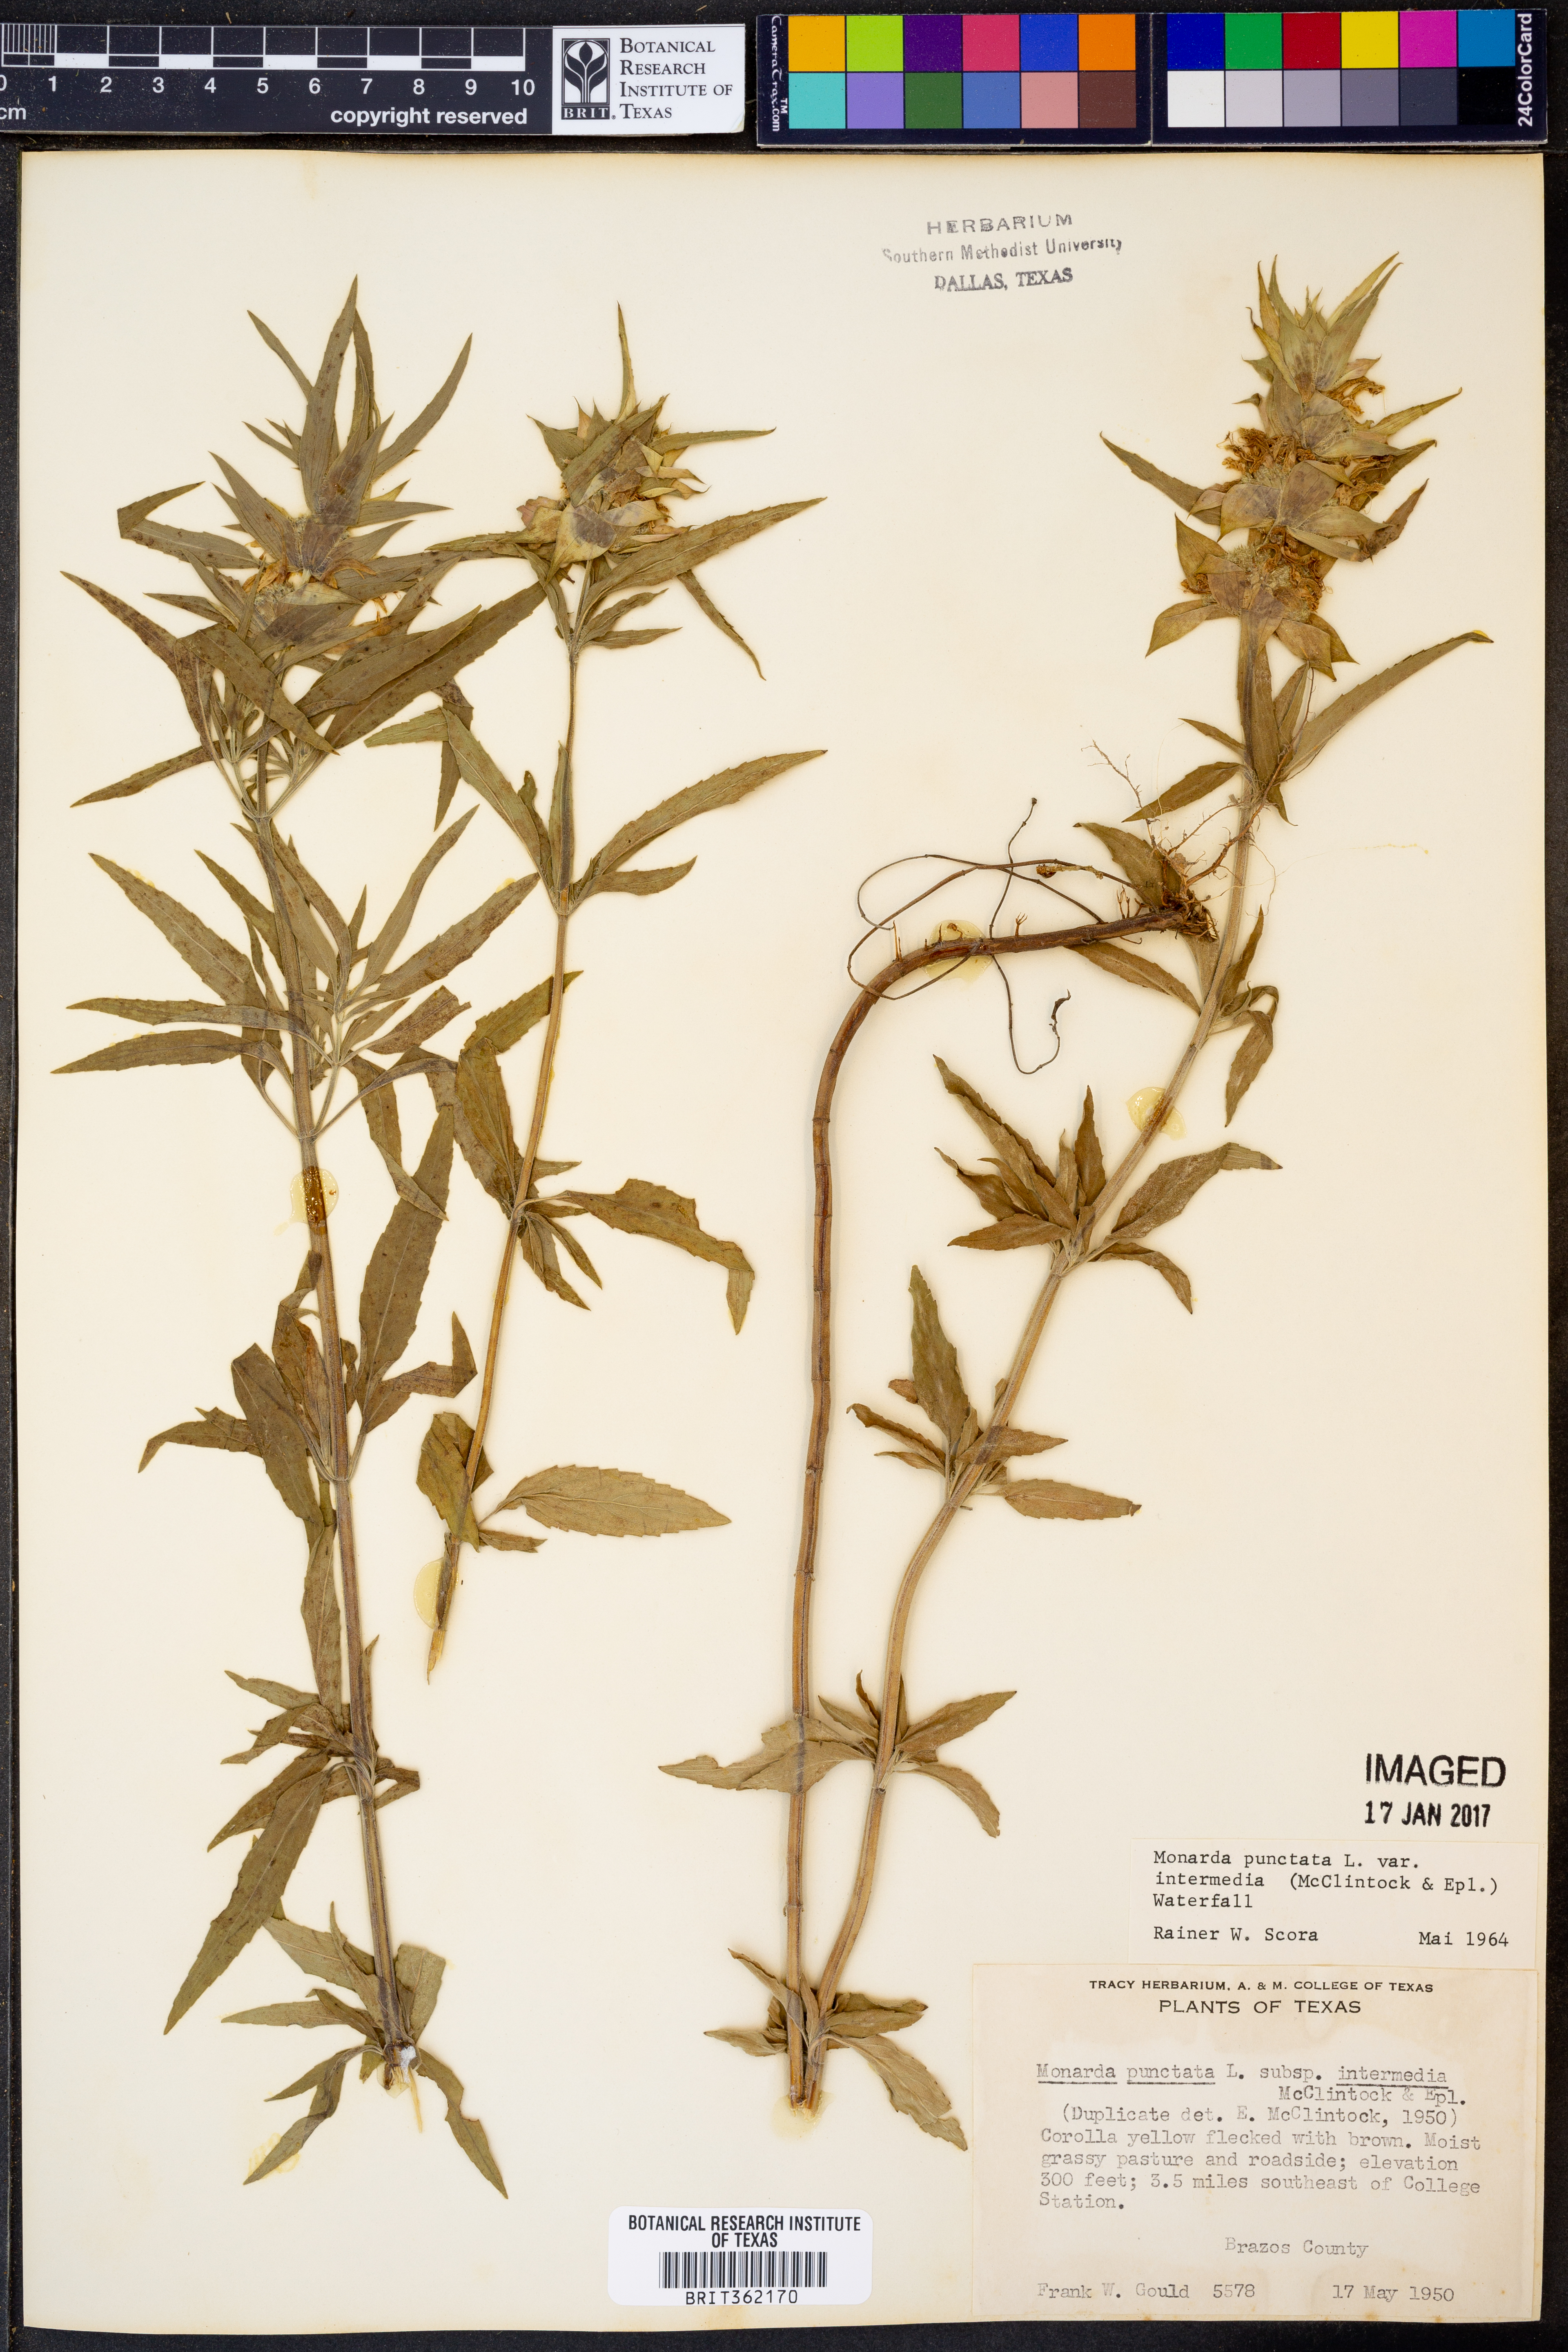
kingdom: Plantae
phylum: Tracheophyta
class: Magnoliopsida
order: Lamiales
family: Lamiaceae
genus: Monarda
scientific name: Monarda punctata
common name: Dotted monarda
